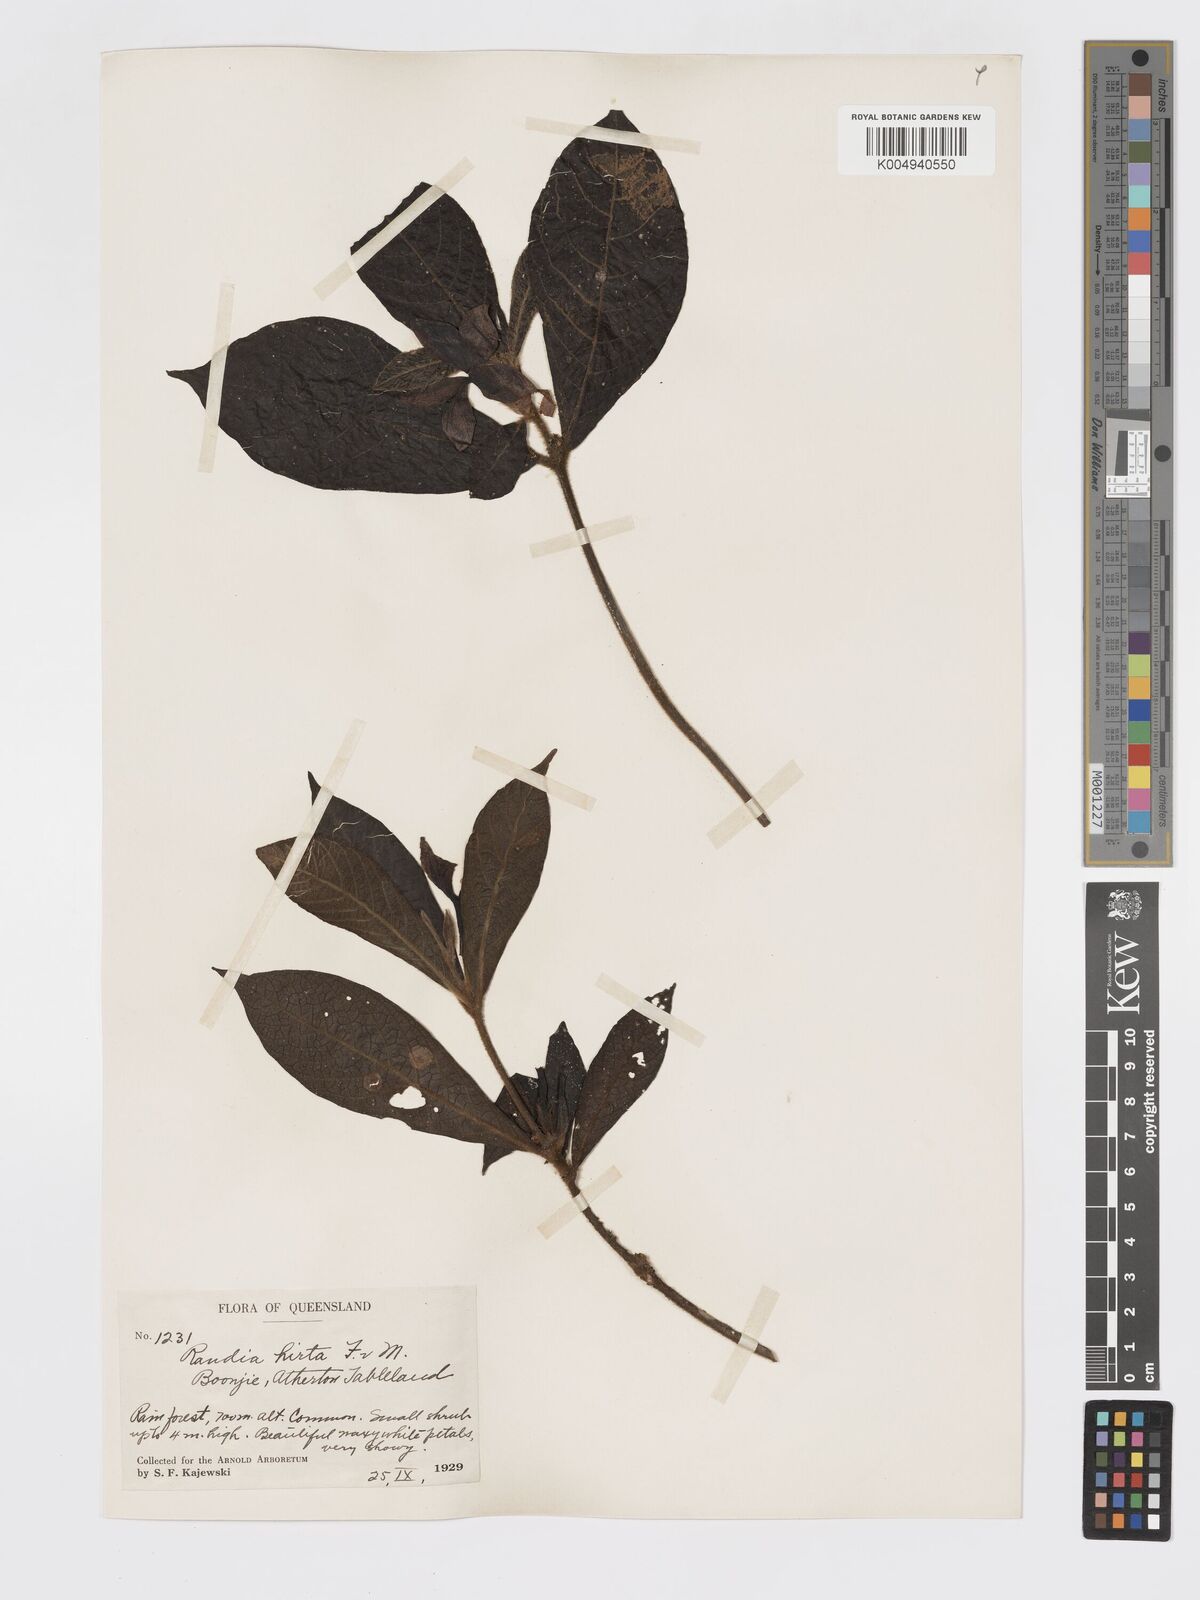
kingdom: Plantae
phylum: Tracheophyta
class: Magnoliopsida
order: Gentianales
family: Rubiaceae
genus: Atractocarpus
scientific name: Atractocarpus hirtus
